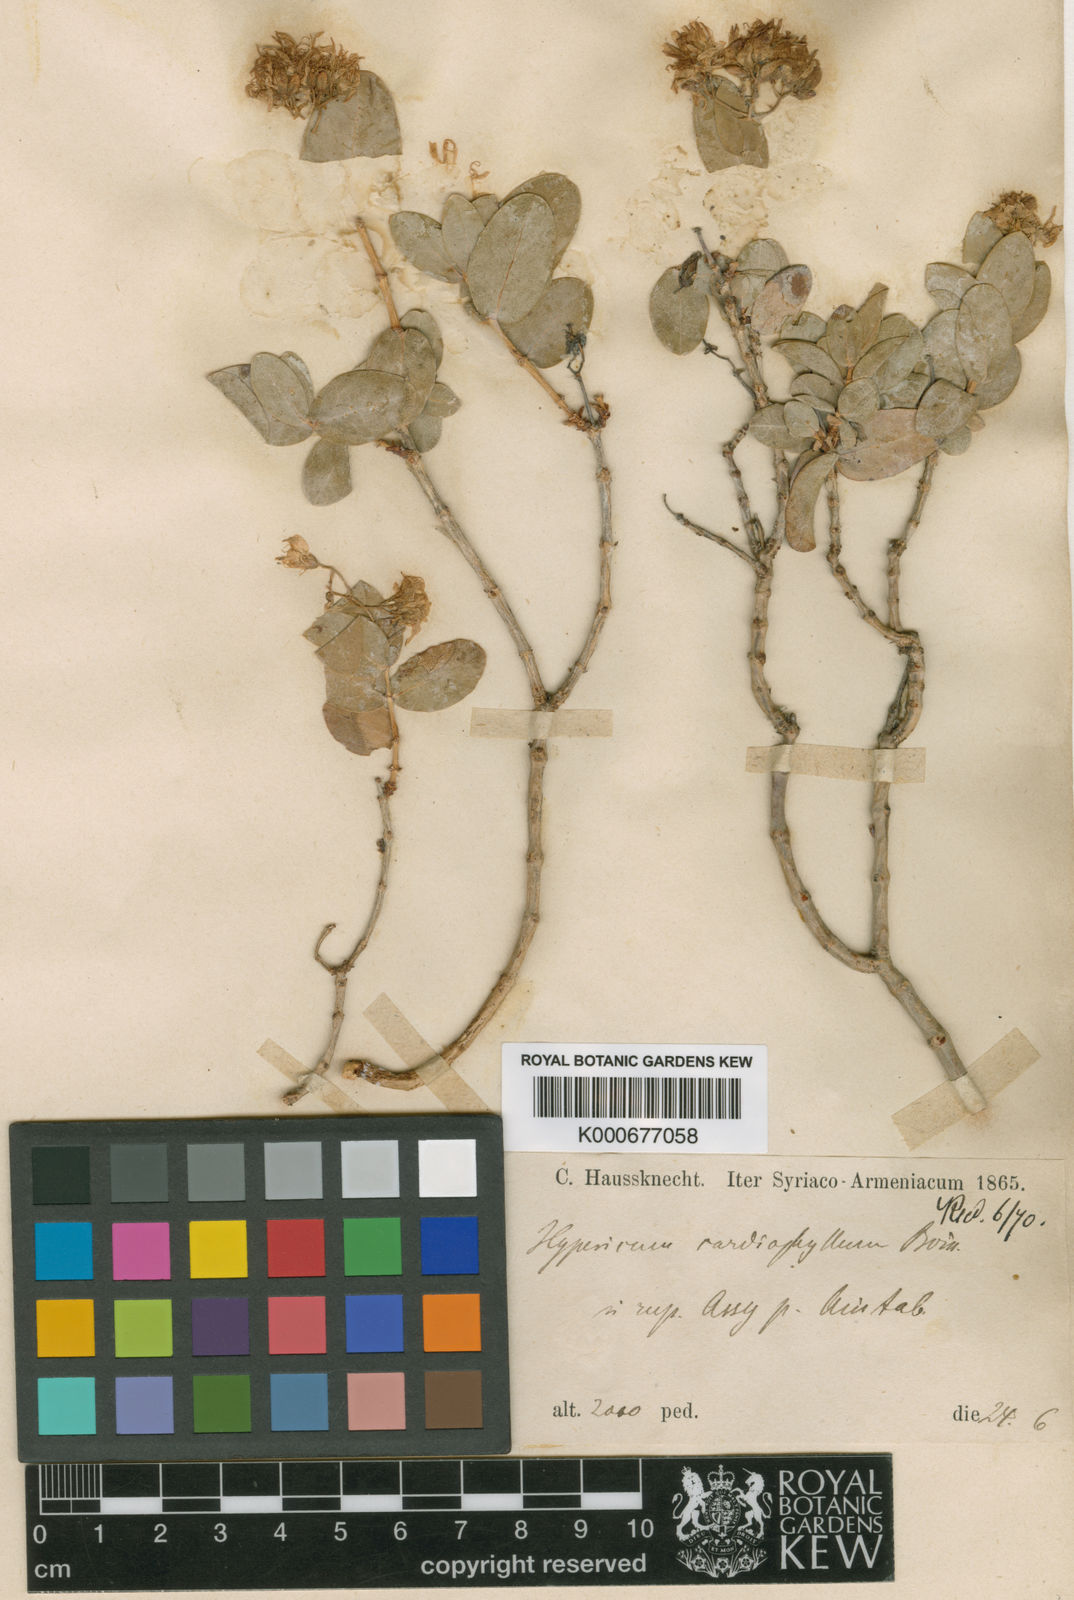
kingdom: Plantae
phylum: Tracheophyta
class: Magnoliopsida
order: Malpighiales
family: Hypericaceae
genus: Hypericum
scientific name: Hypericum cardiophyllum
